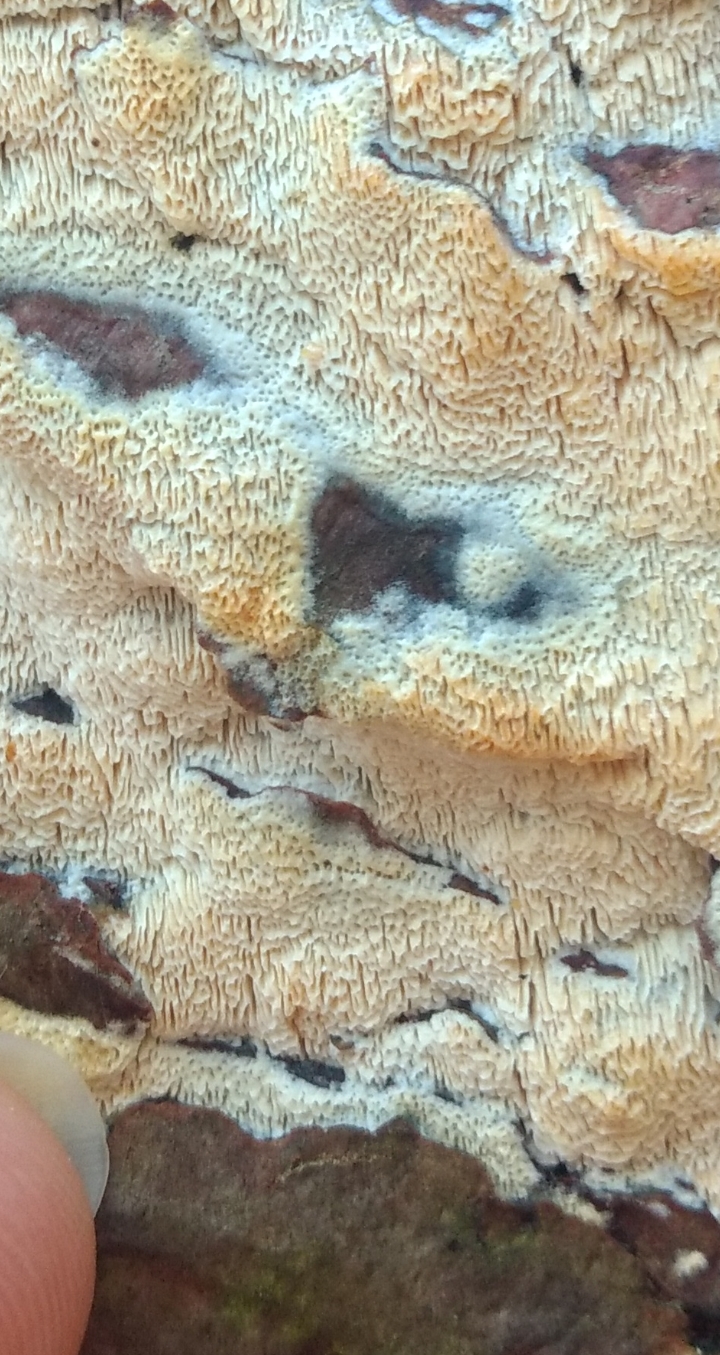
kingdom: Fungi
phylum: Basidiomycota
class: Agaricomycetes
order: Hymenochaetales
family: Schizoporaceae
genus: Xylodon
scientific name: Xylodon subtropicus
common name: labyrint-tandsvamp
